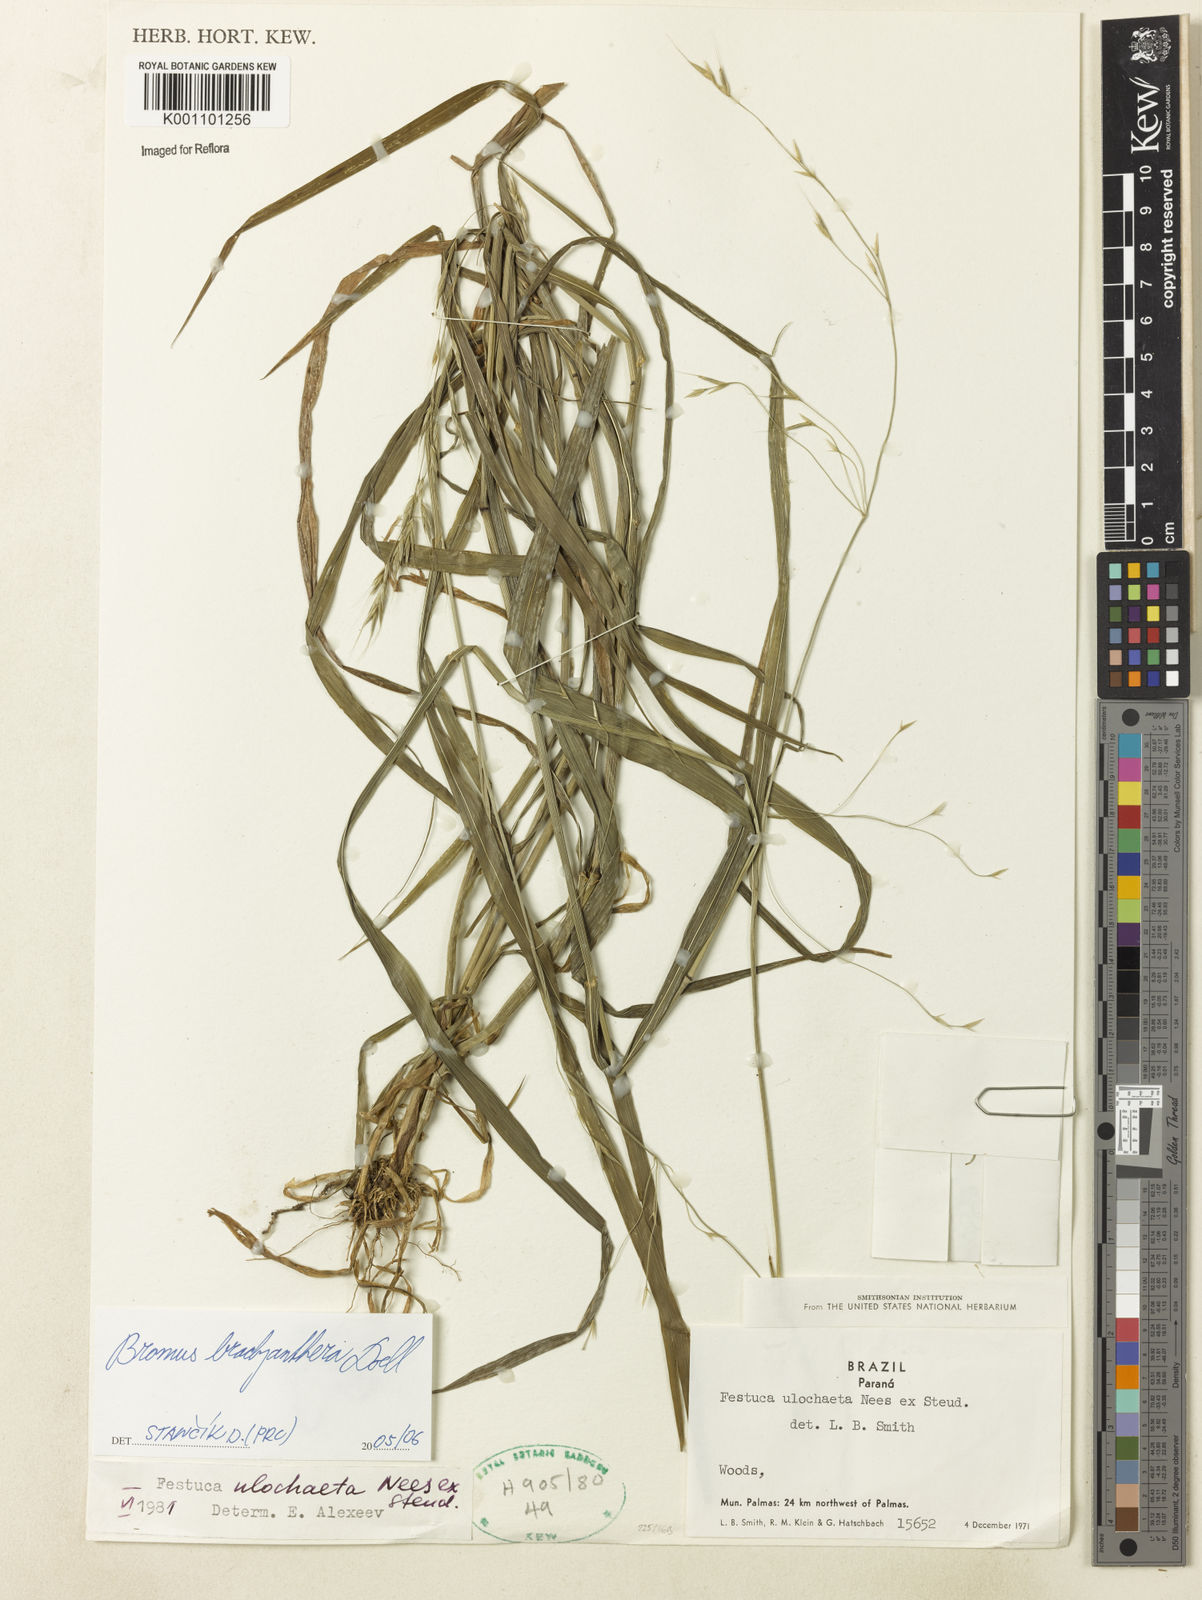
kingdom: Plantae
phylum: Tracheophyta
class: Liliopsida
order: Poales
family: Poaceae
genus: Bromus
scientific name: Bromus
